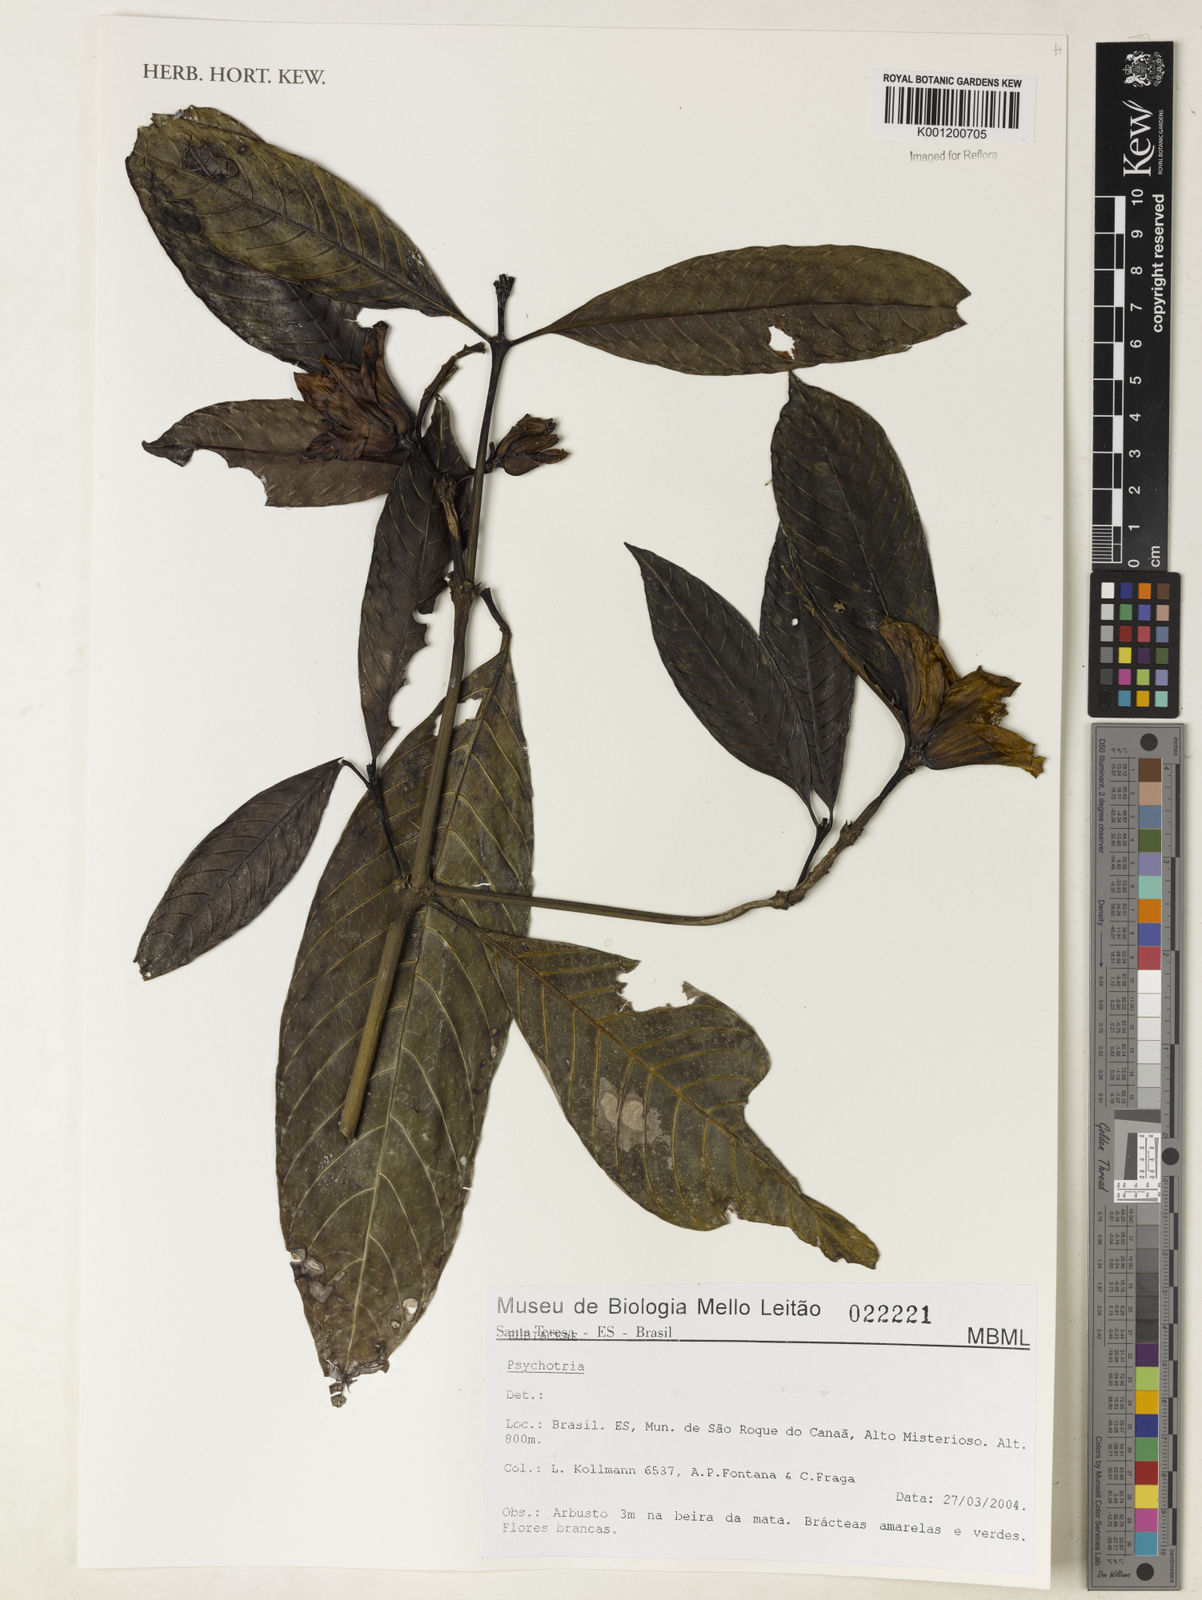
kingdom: Plantae
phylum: Tracheophyta
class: Magnoliopsida
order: Gentianales
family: Rubiaceae
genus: Psychotria
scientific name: Psychotria
